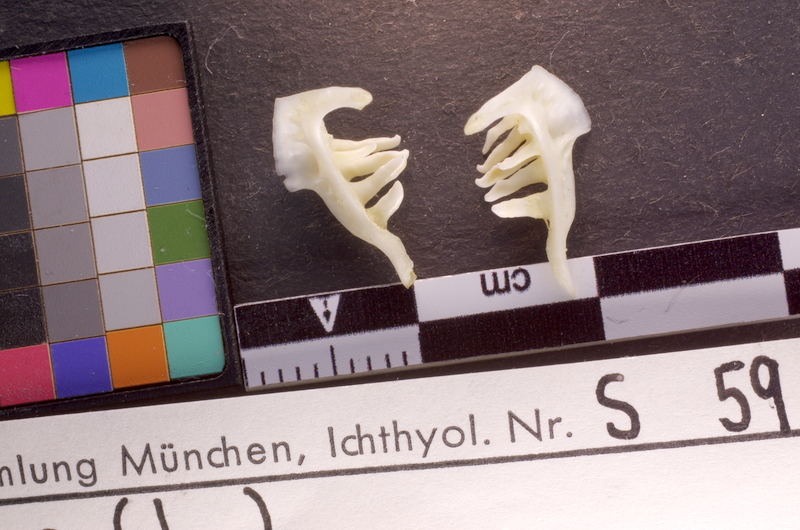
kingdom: Animalia
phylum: Chordata
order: Cypriniformes
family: Cyprinidae
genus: Leuciscus
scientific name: Leuciscus idus
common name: Ide
